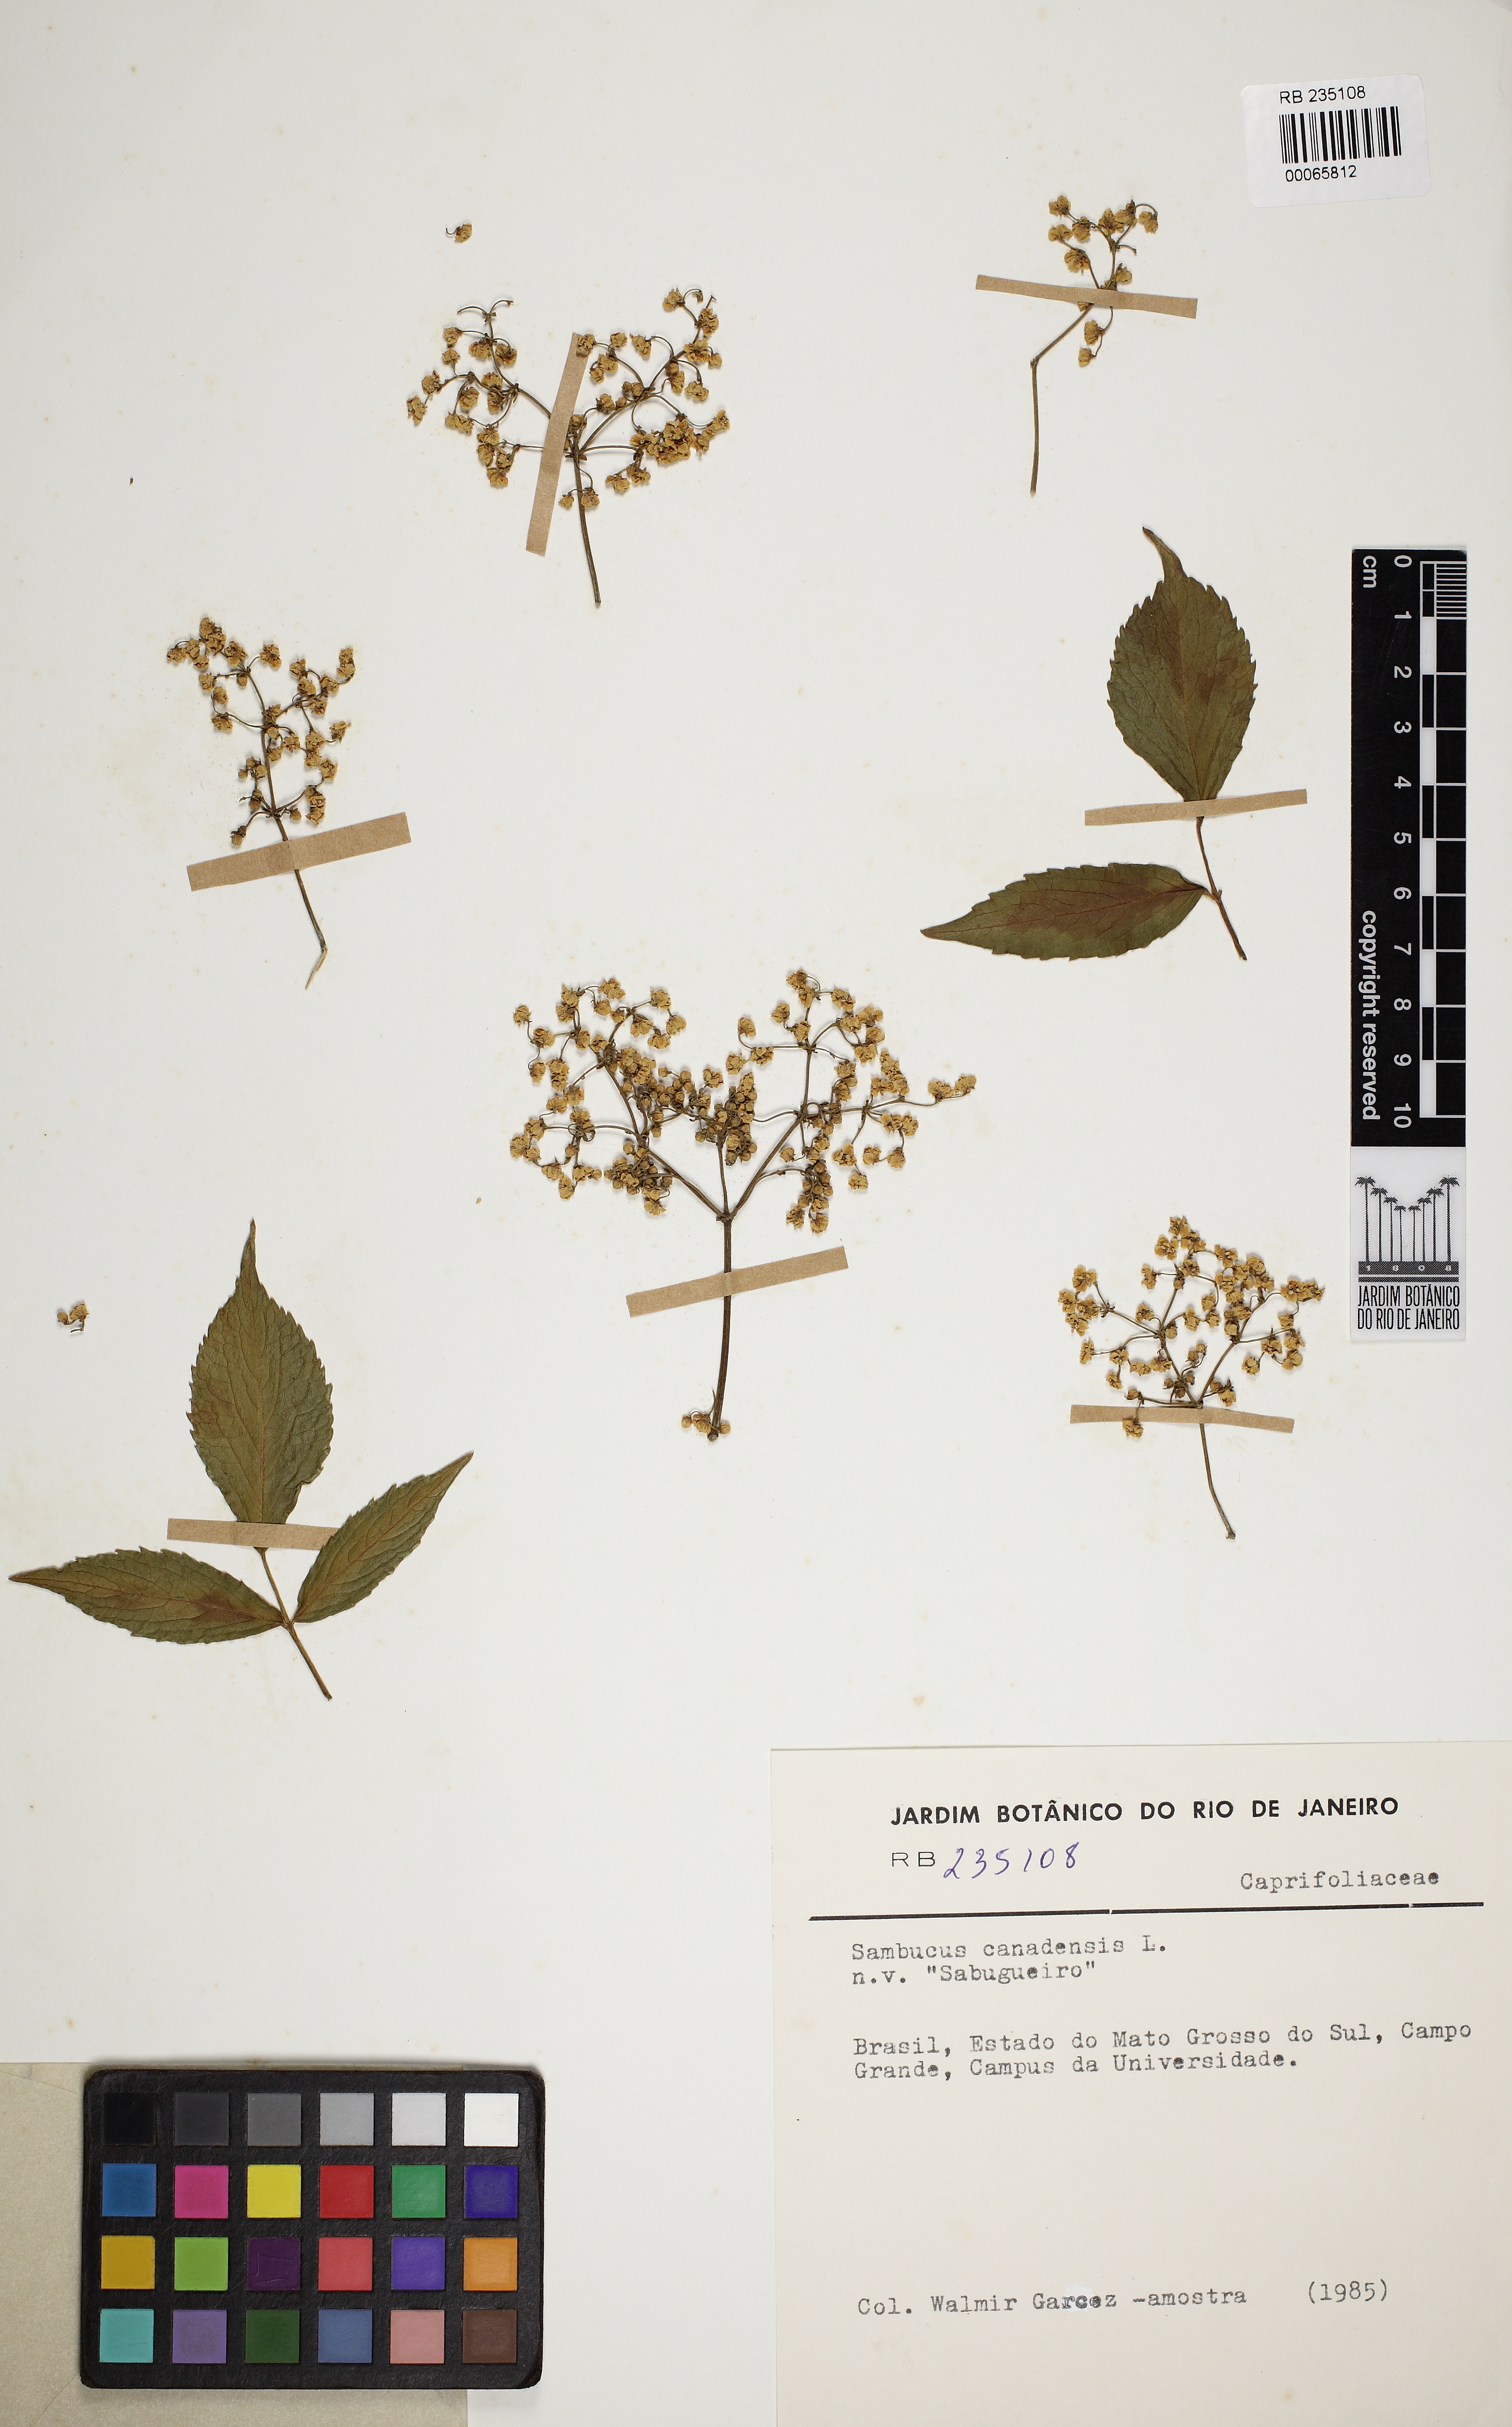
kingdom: Plantae
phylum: Tracheophyta
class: Magnoliopsida
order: Dipsacales
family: Viburnaceae
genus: Sambucus
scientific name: Sambucus canadensis
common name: American elder
